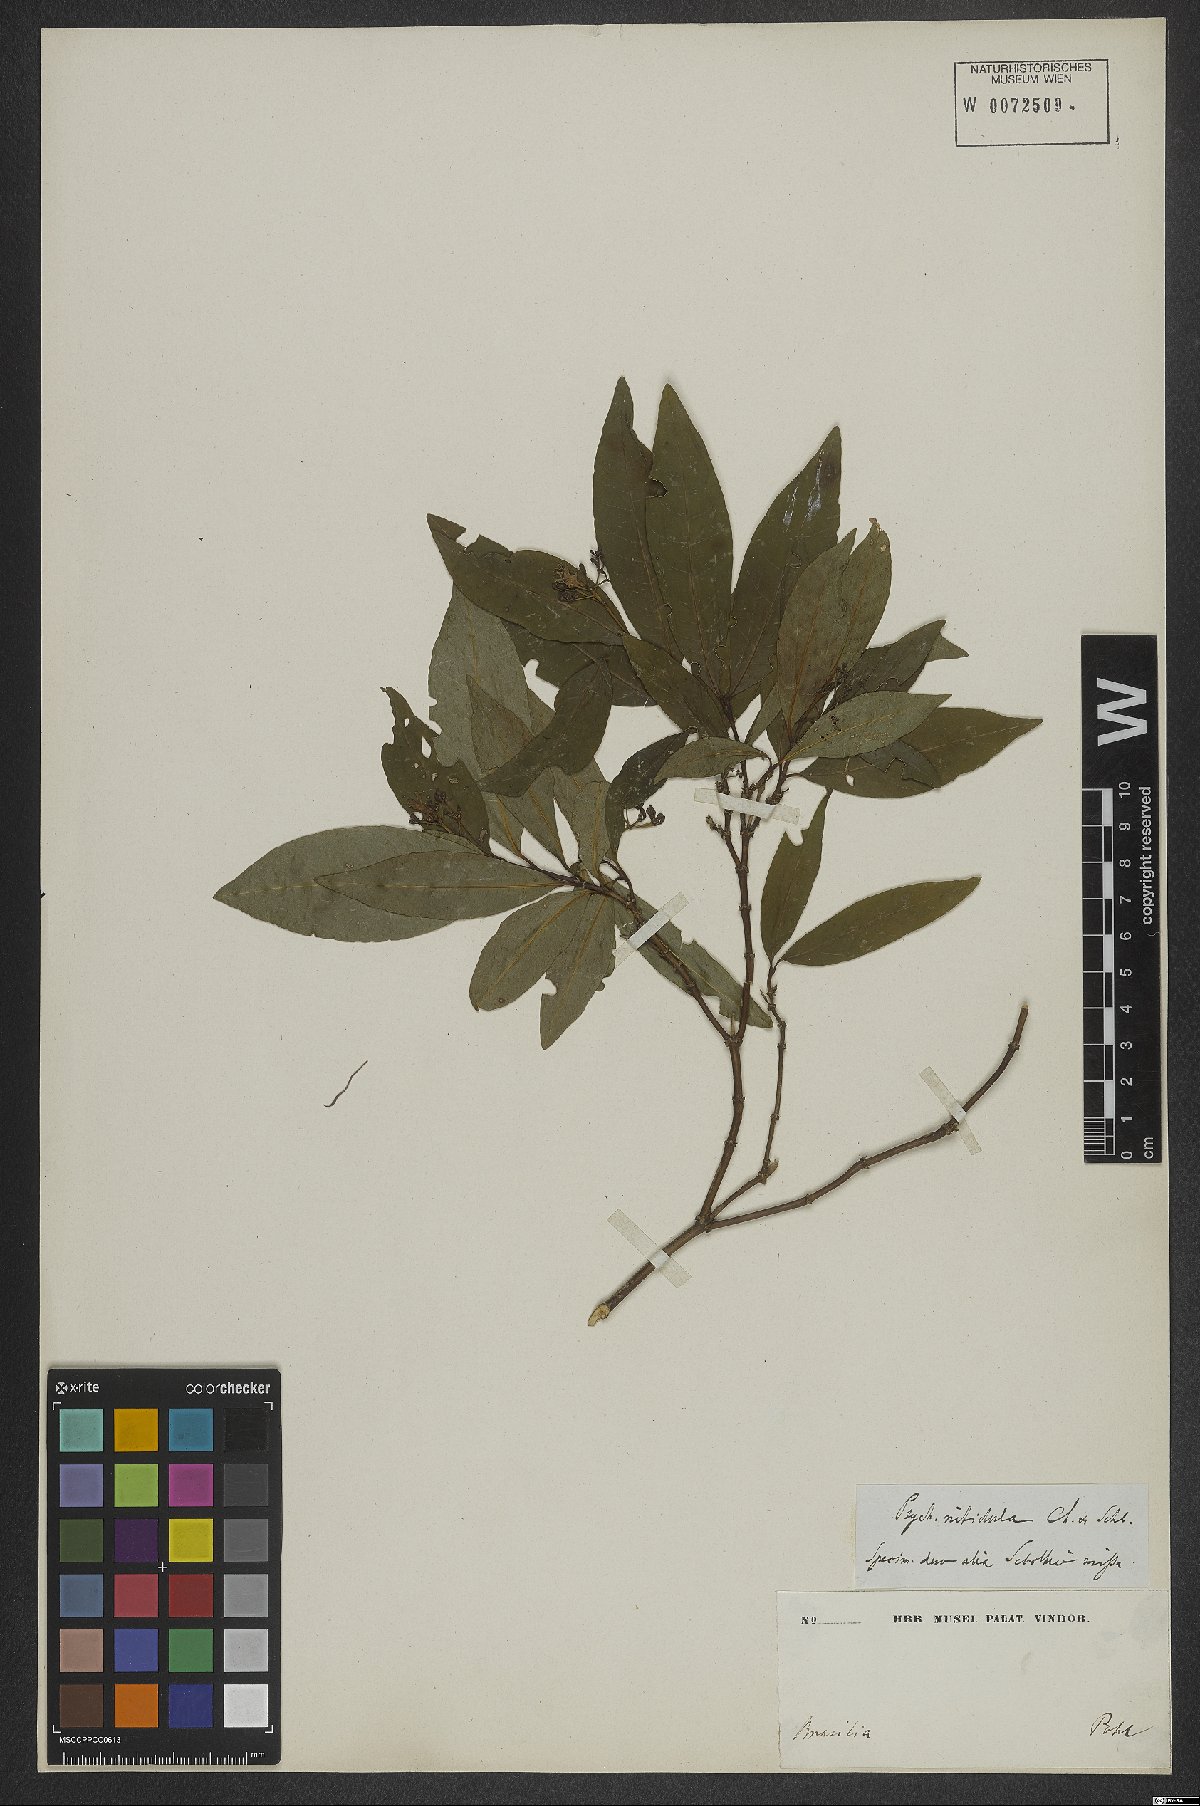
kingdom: Plantae
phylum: Tracheophyta
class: Magnoliopsida
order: Gentianales
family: Rubiaceae
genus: Psychotria
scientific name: Psychotria leiocarpa
